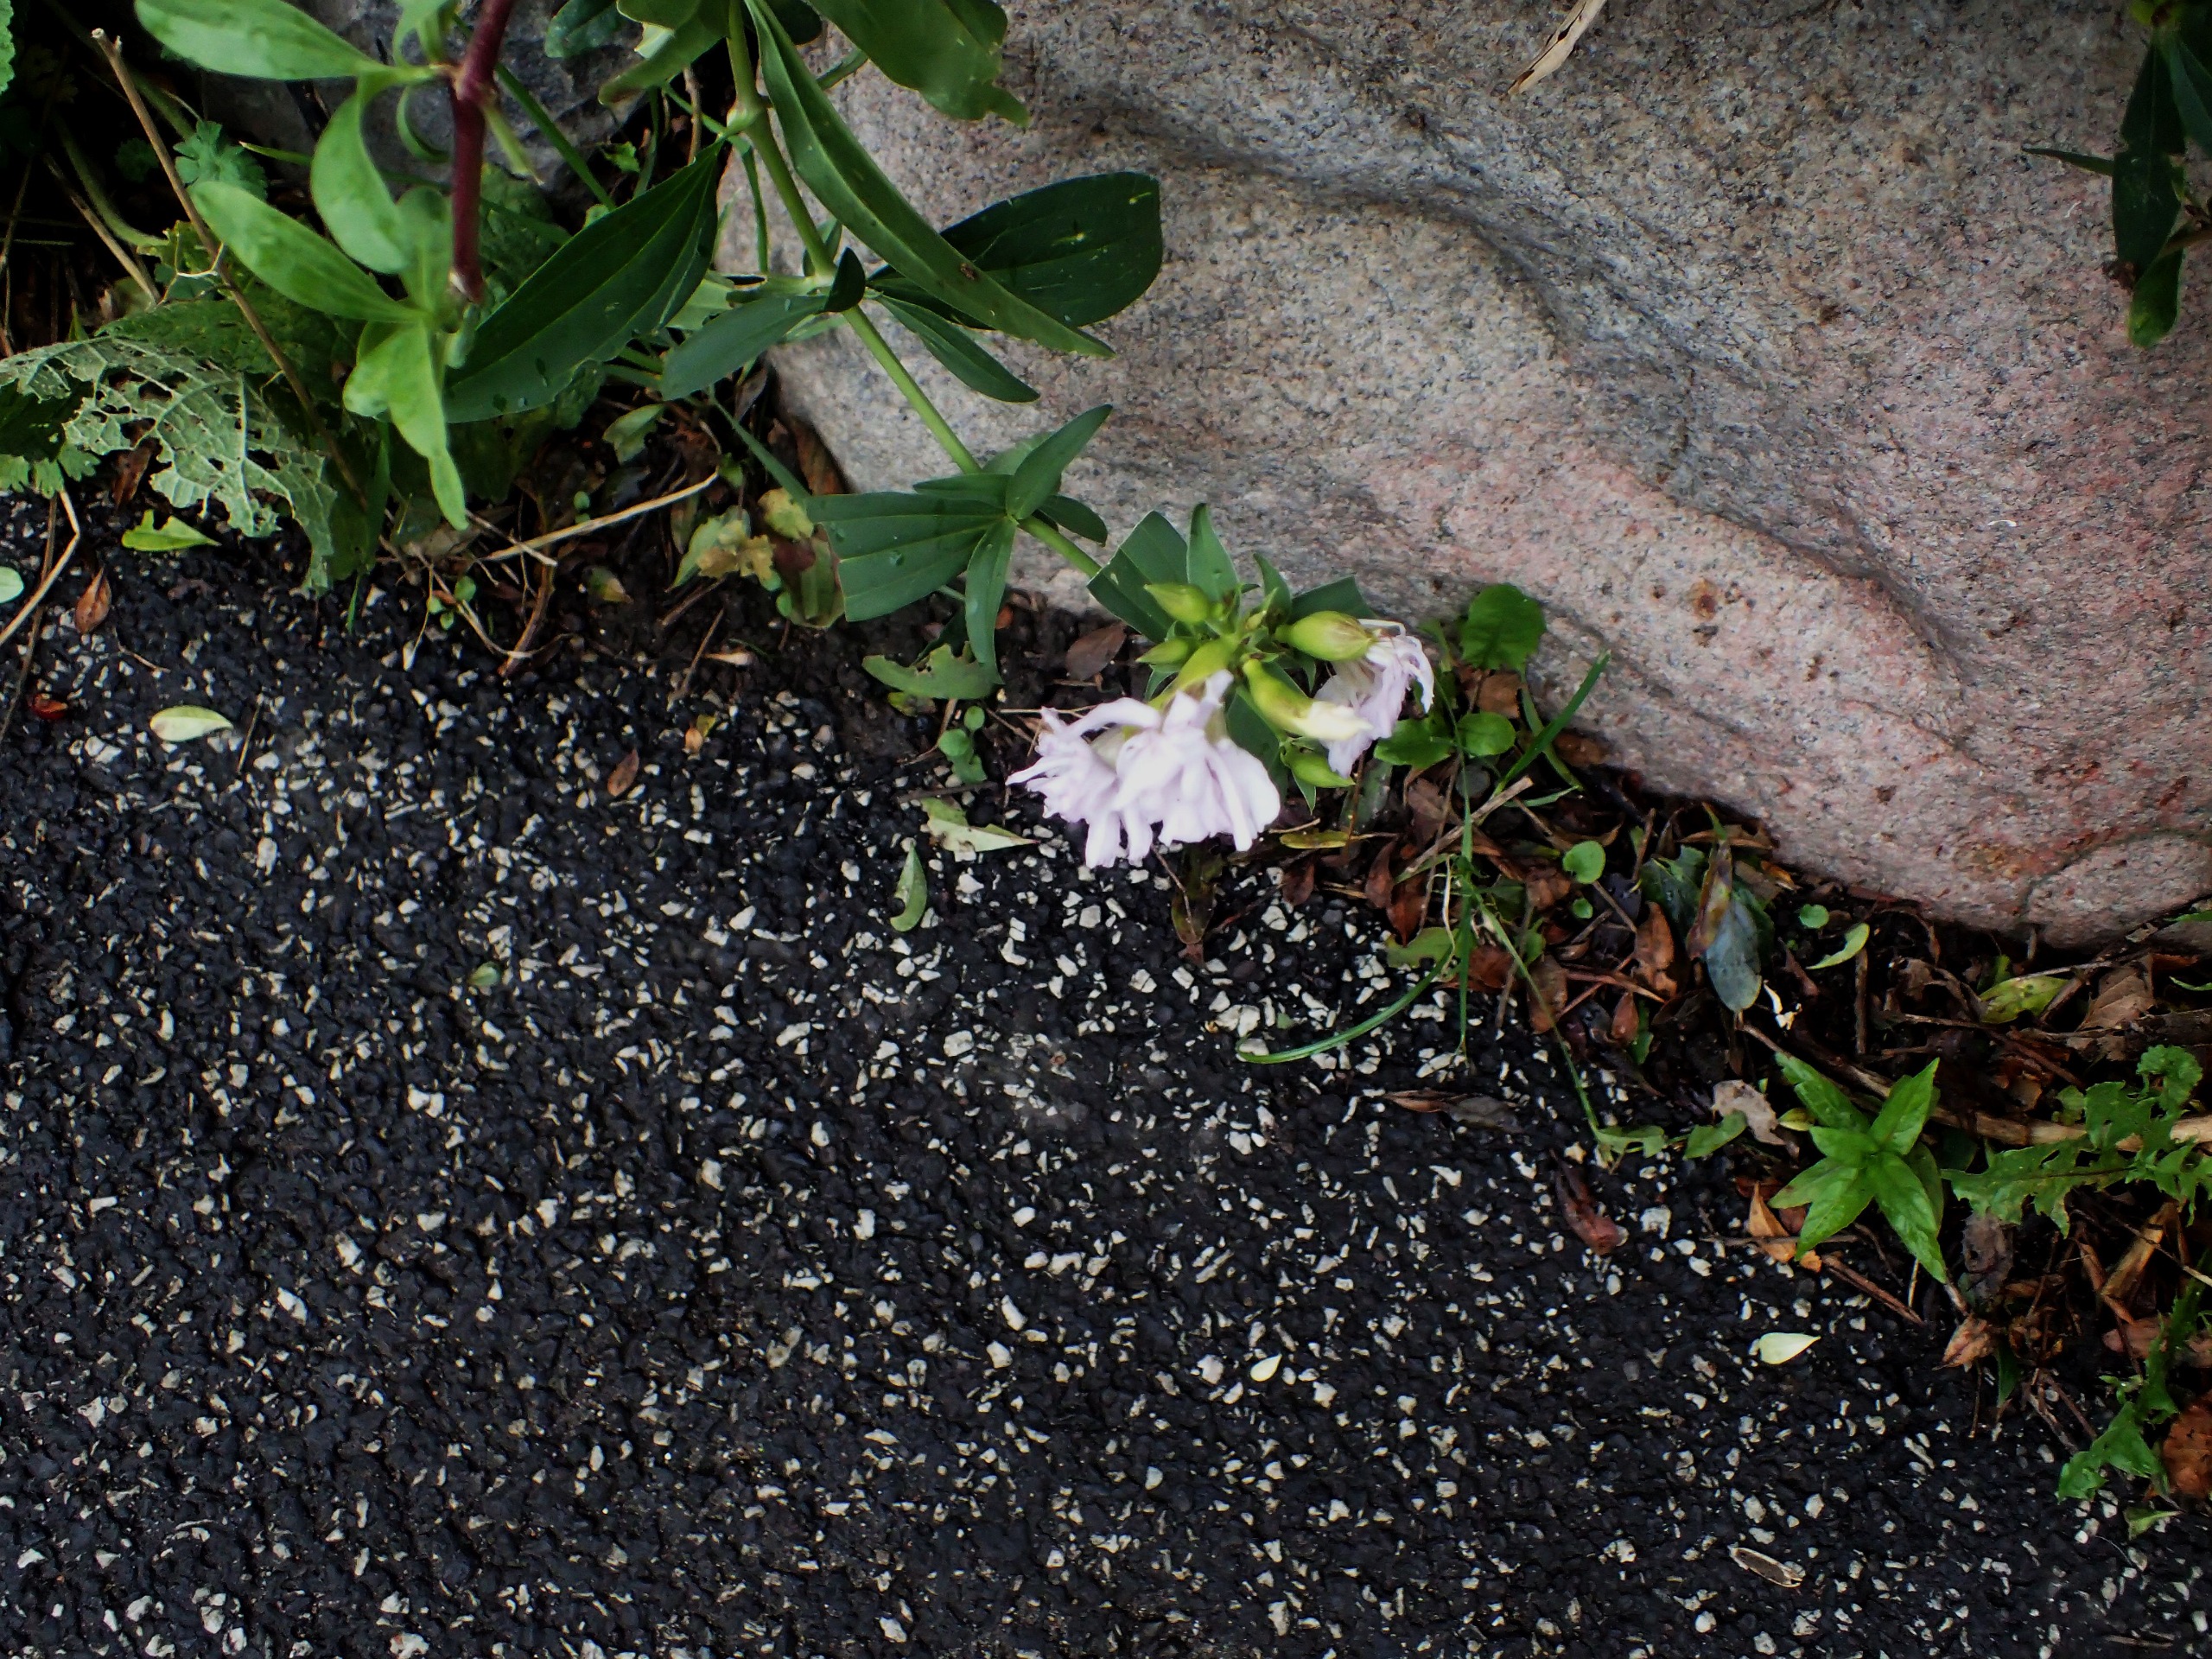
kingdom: Plantae
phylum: Tracheophyta
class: Magnoliopsida
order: Caryophyllales
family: Caryophyllaceae
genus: Saponaria
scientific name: Saponaria officinalis
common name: Sæbeurt
